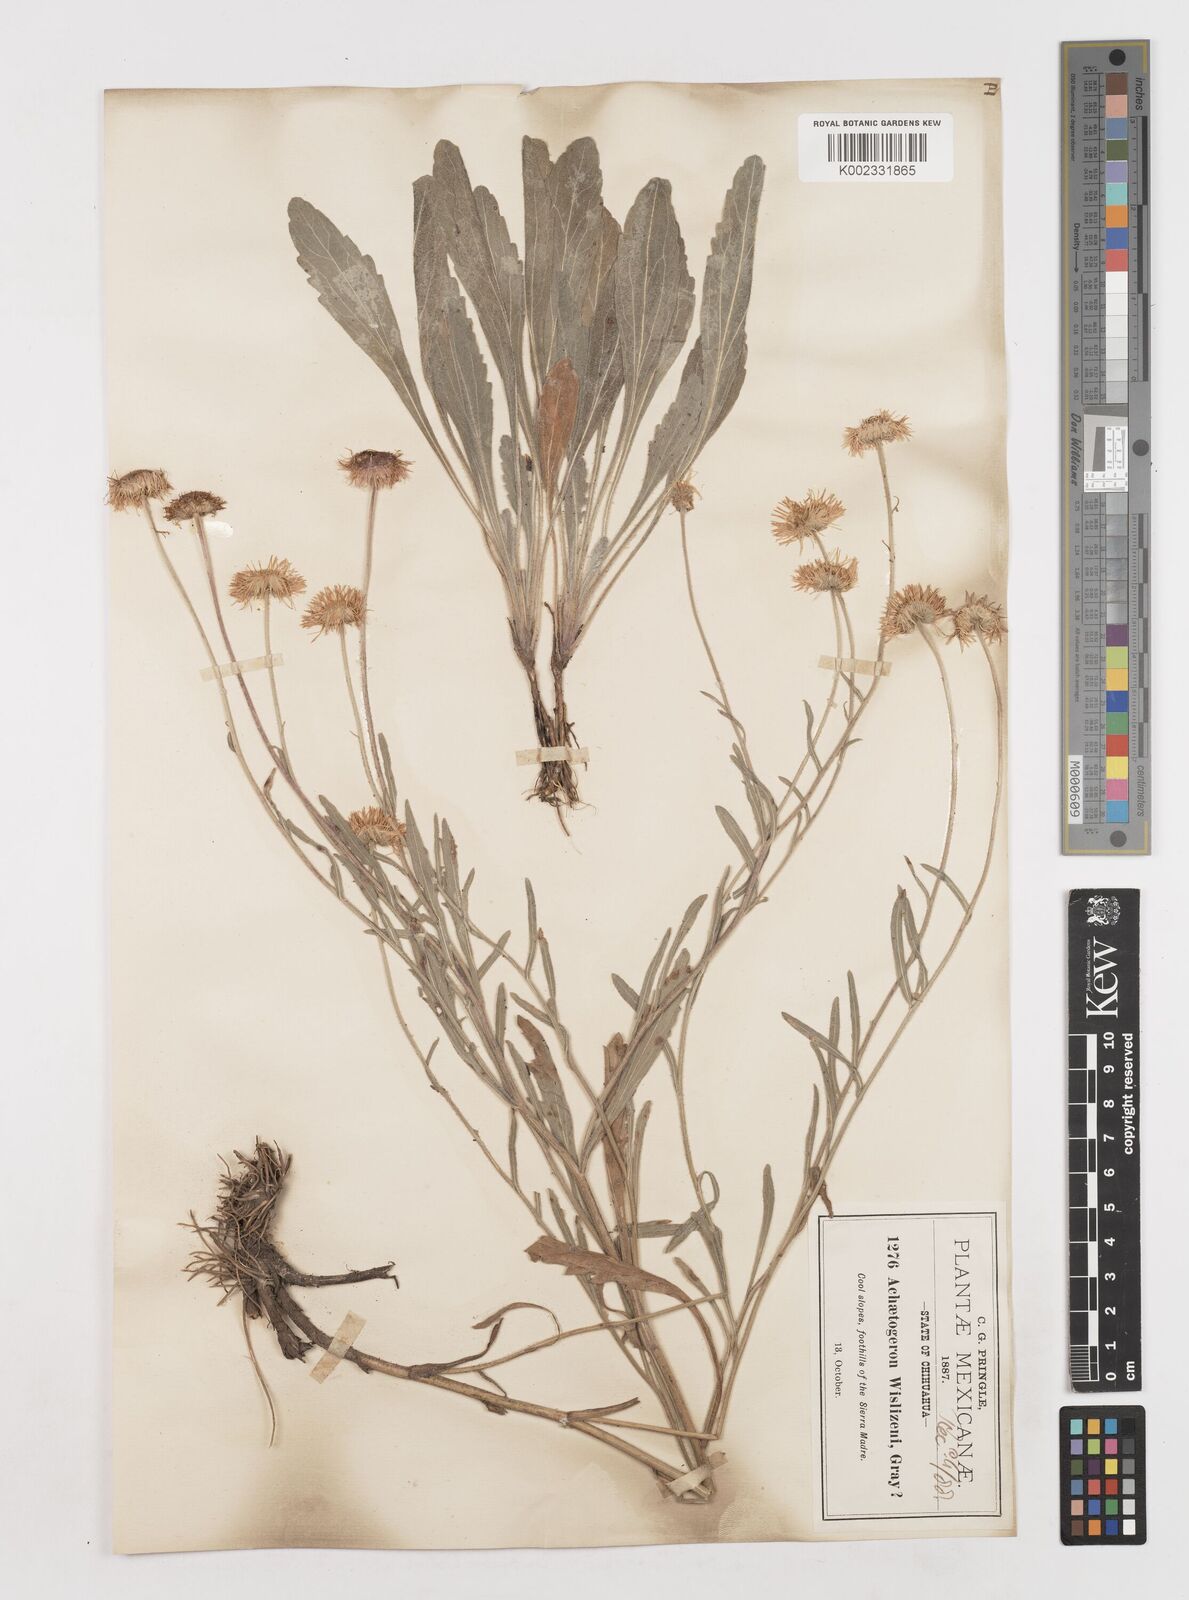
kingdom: Plantae
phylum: Tracheophyta
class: Magnoliopsida
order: Asterales
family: Asteraceae
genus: Erigeron
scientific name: Erigeron wislizeni
